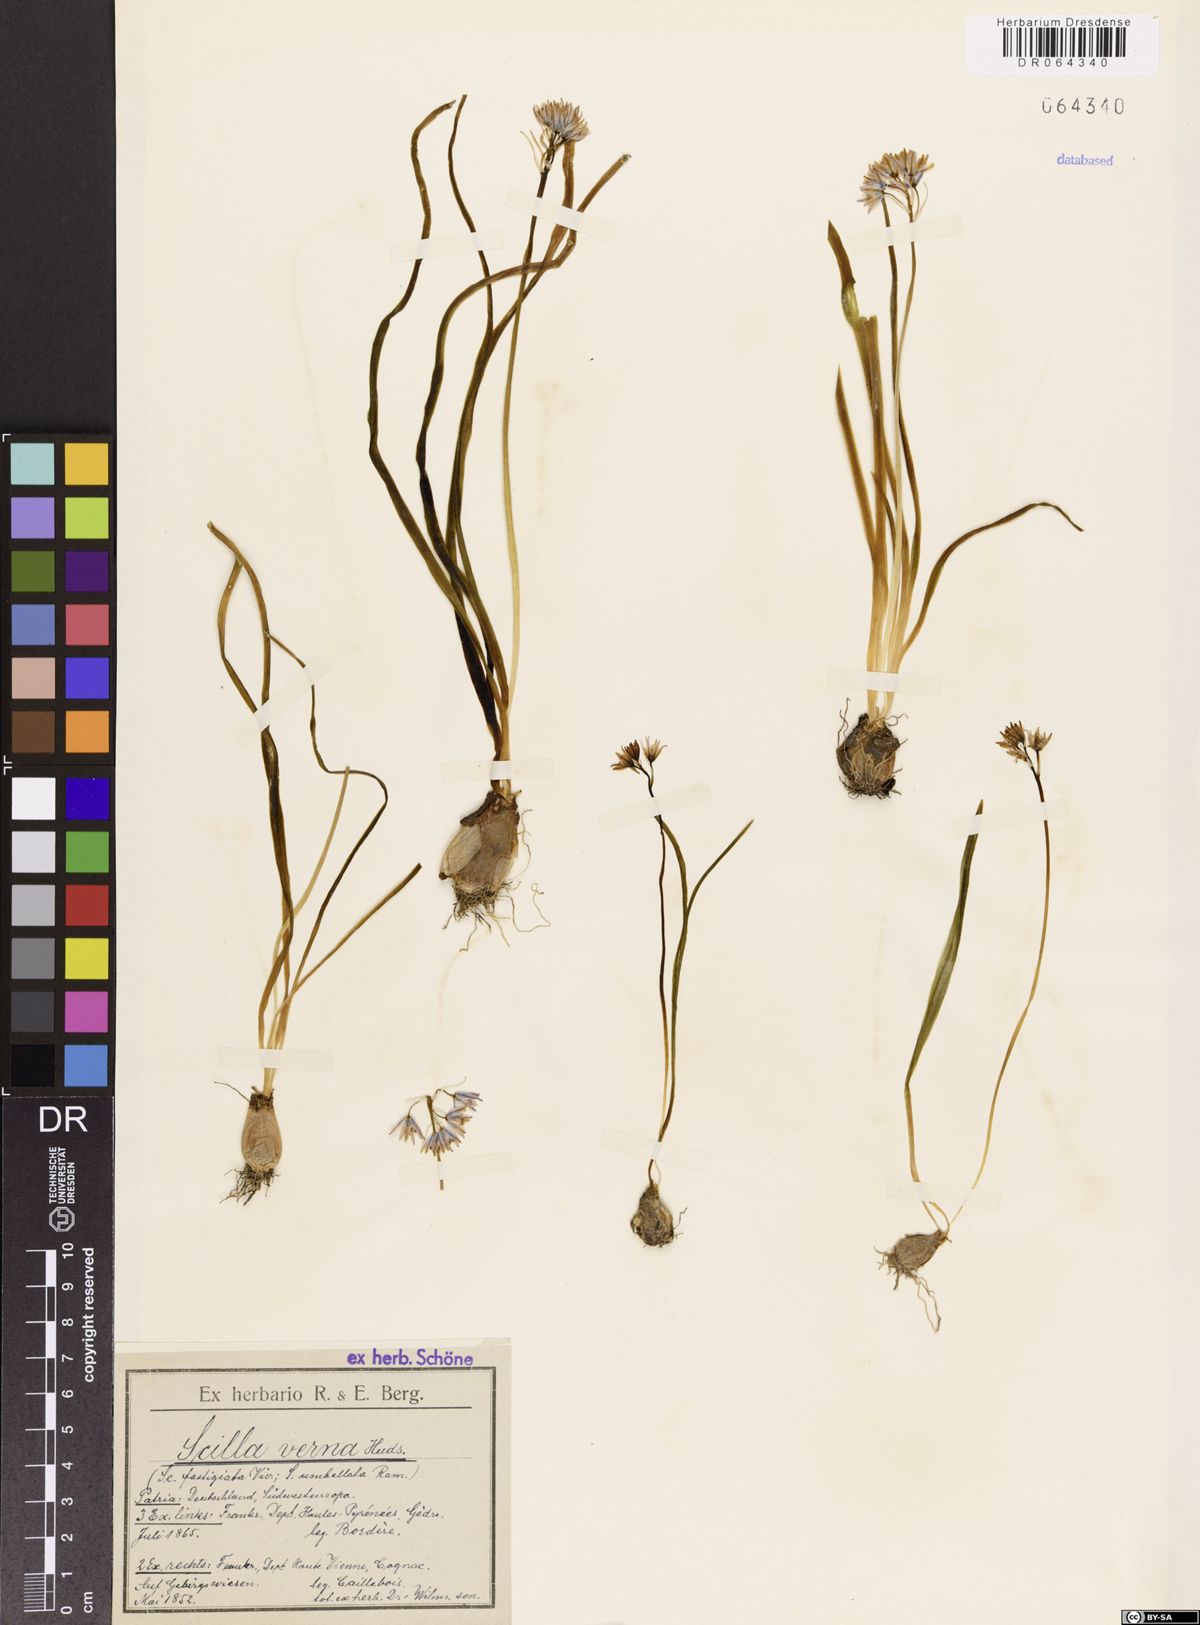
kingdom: Plantae
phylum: Tracheophyta
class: Liliopsida
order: Asparagales
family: Asparagaceae
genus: Scilla
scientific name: Scilla verna
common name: Spring squill
